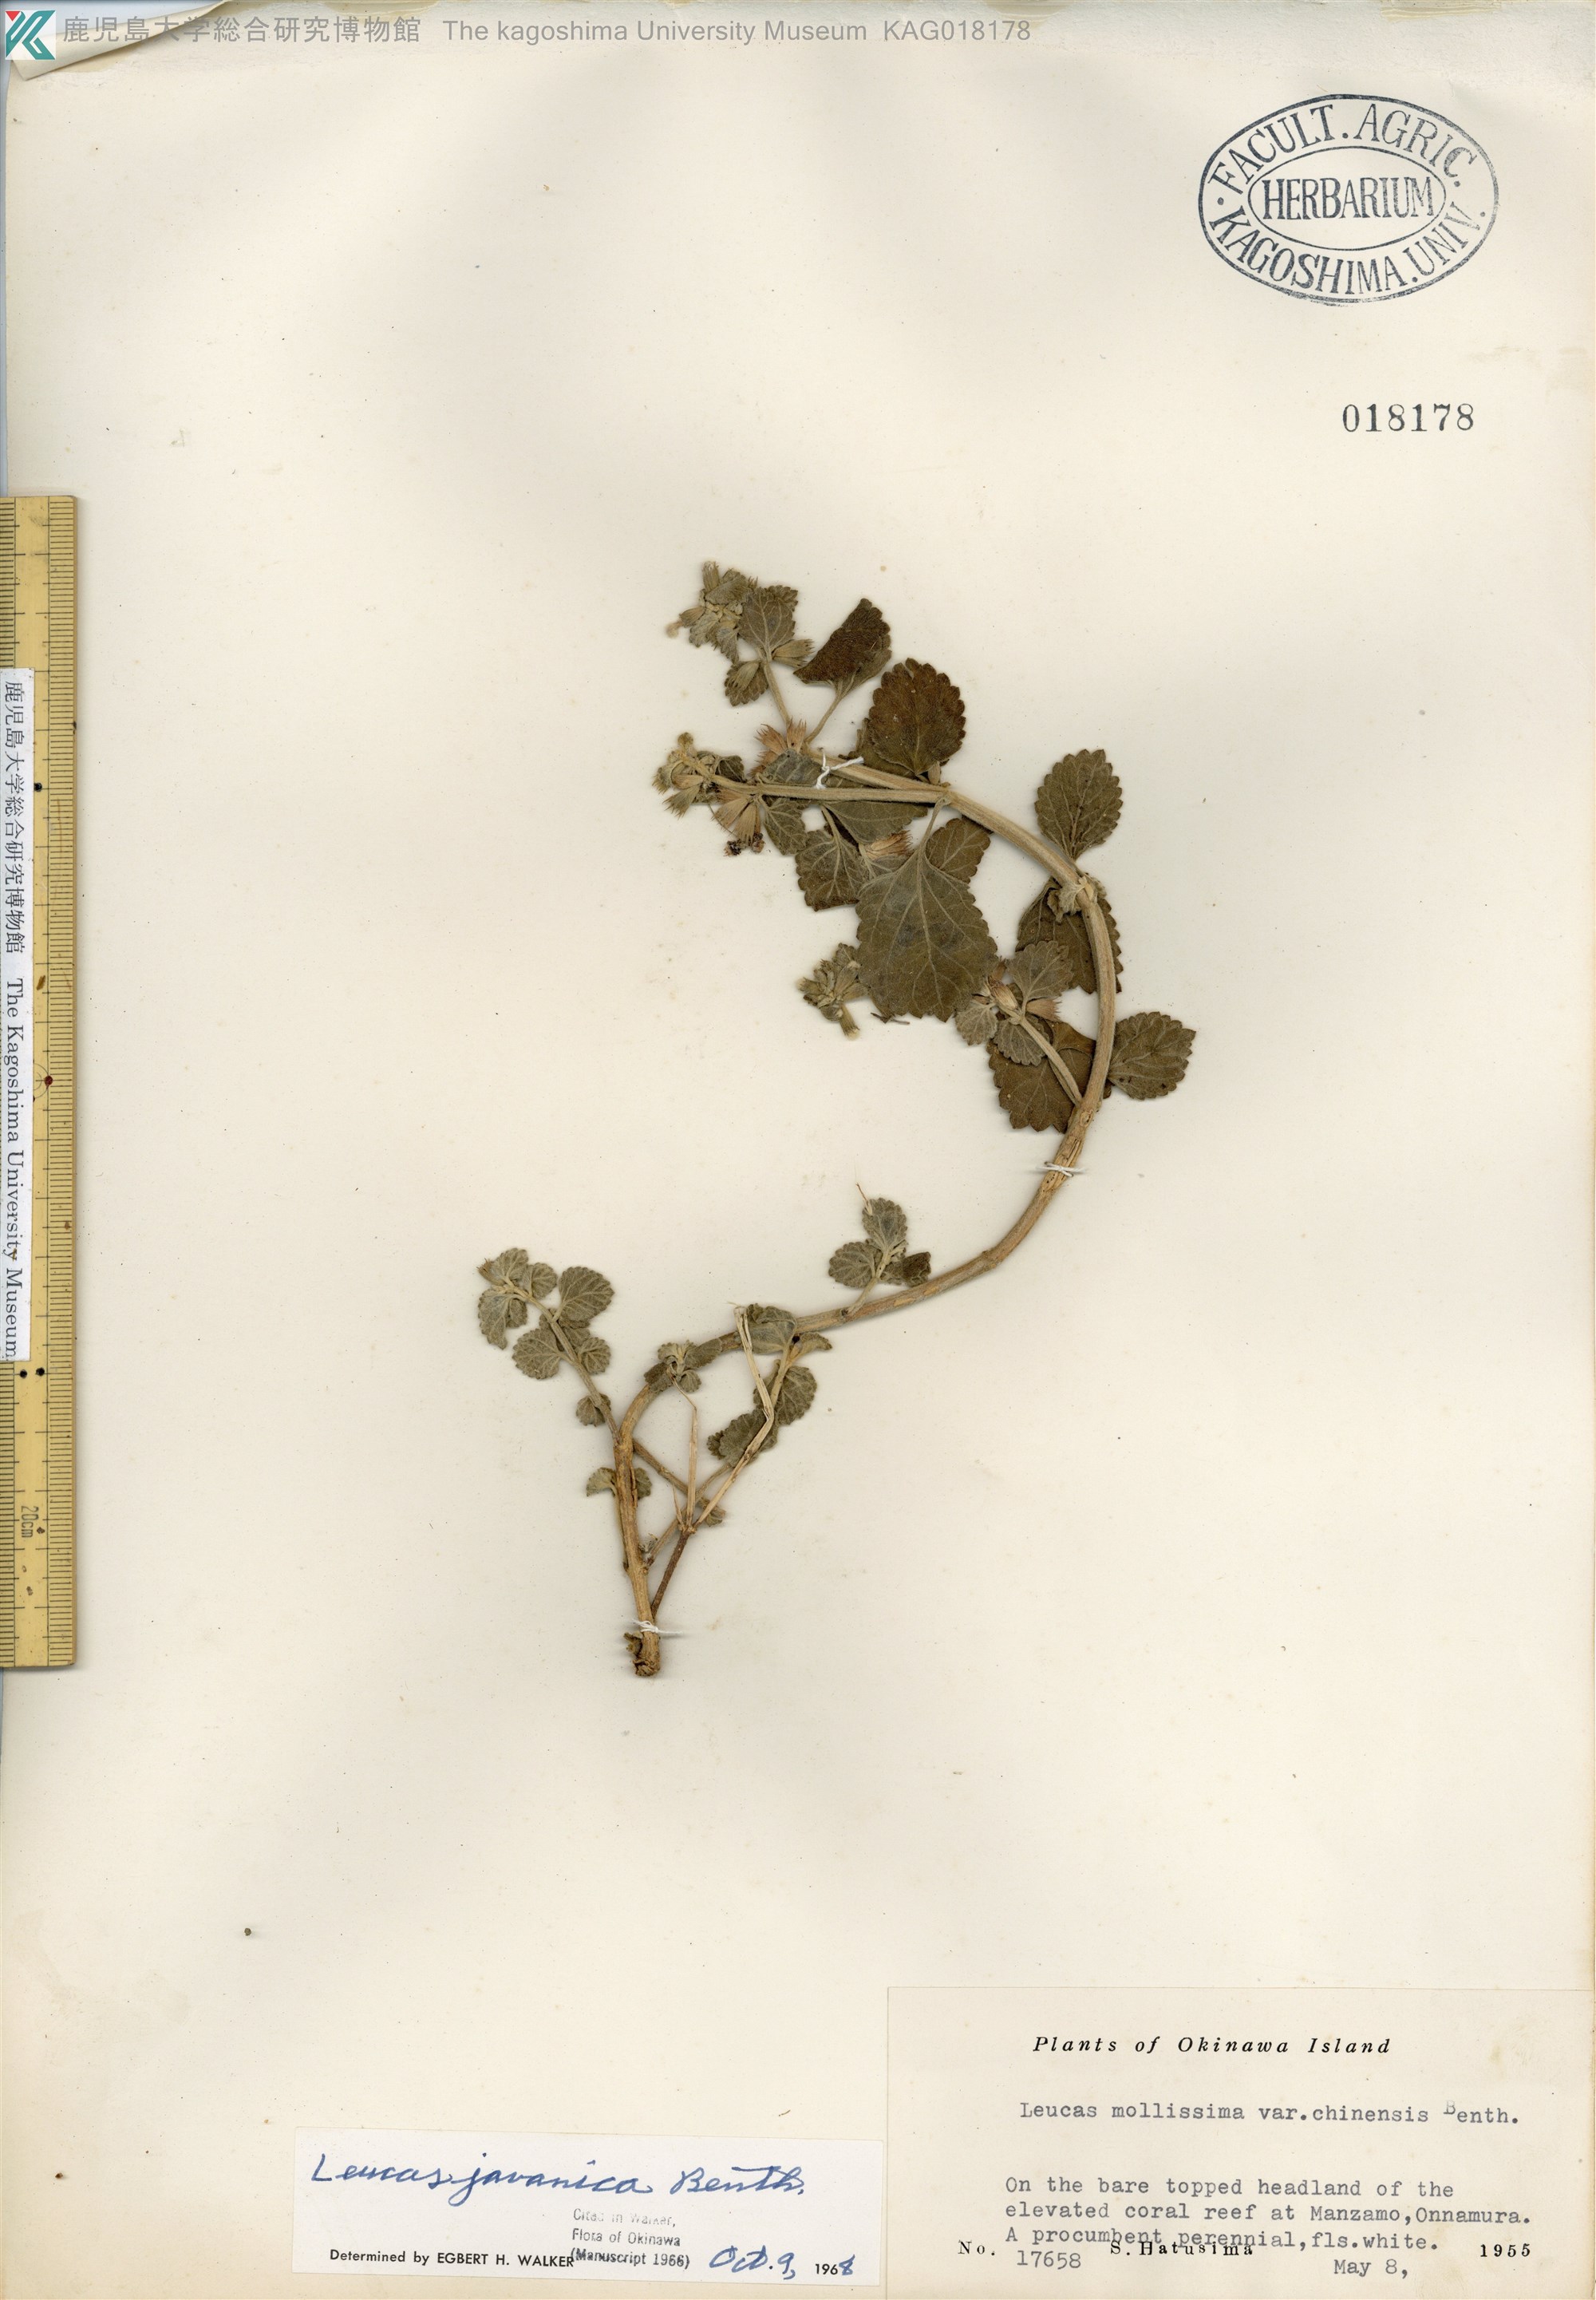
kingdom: Plantae
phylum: Tracheophyta
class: Magnoliopsida
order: Lamiales
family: Lamiaceae
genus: Leucas
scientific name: Leucas chinensis
